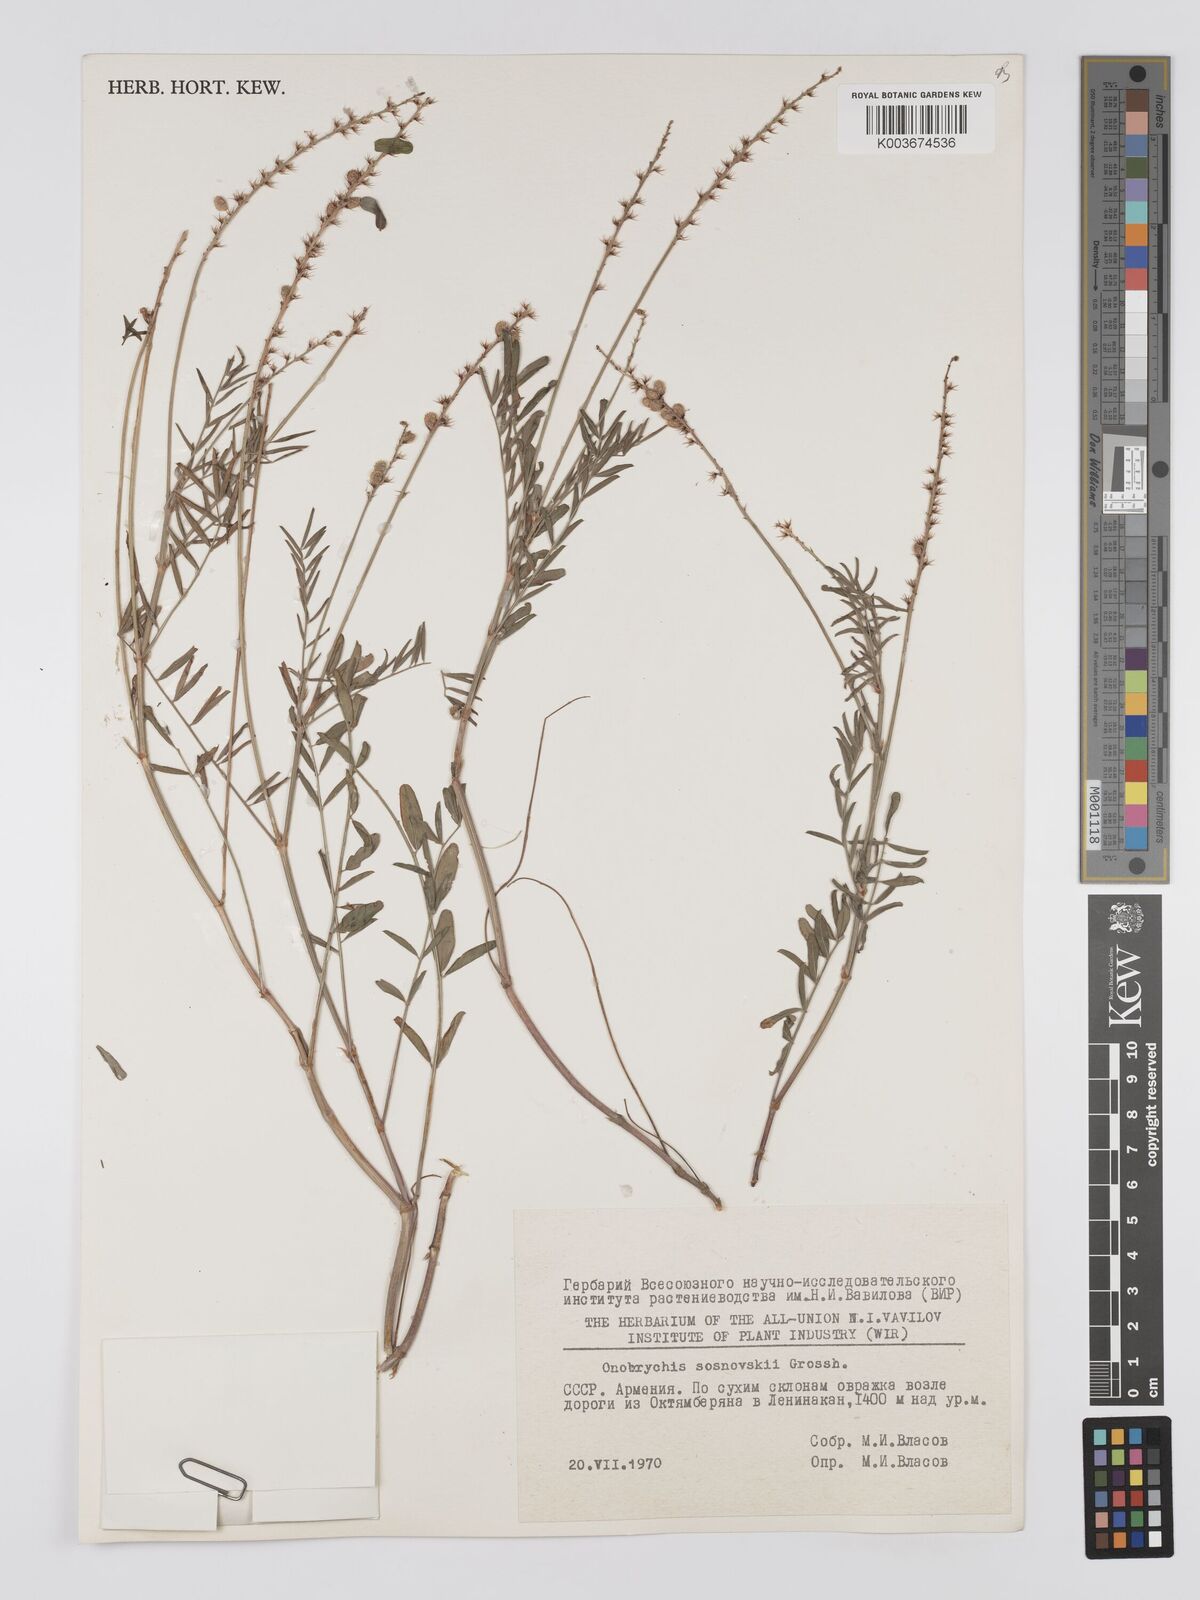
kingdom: Plantae
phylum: Tracheophyta
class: Magnoliopsida
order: Fabales
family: Fabaceae
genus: Onobrychis
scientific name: Onobrychis sosnowskyi
